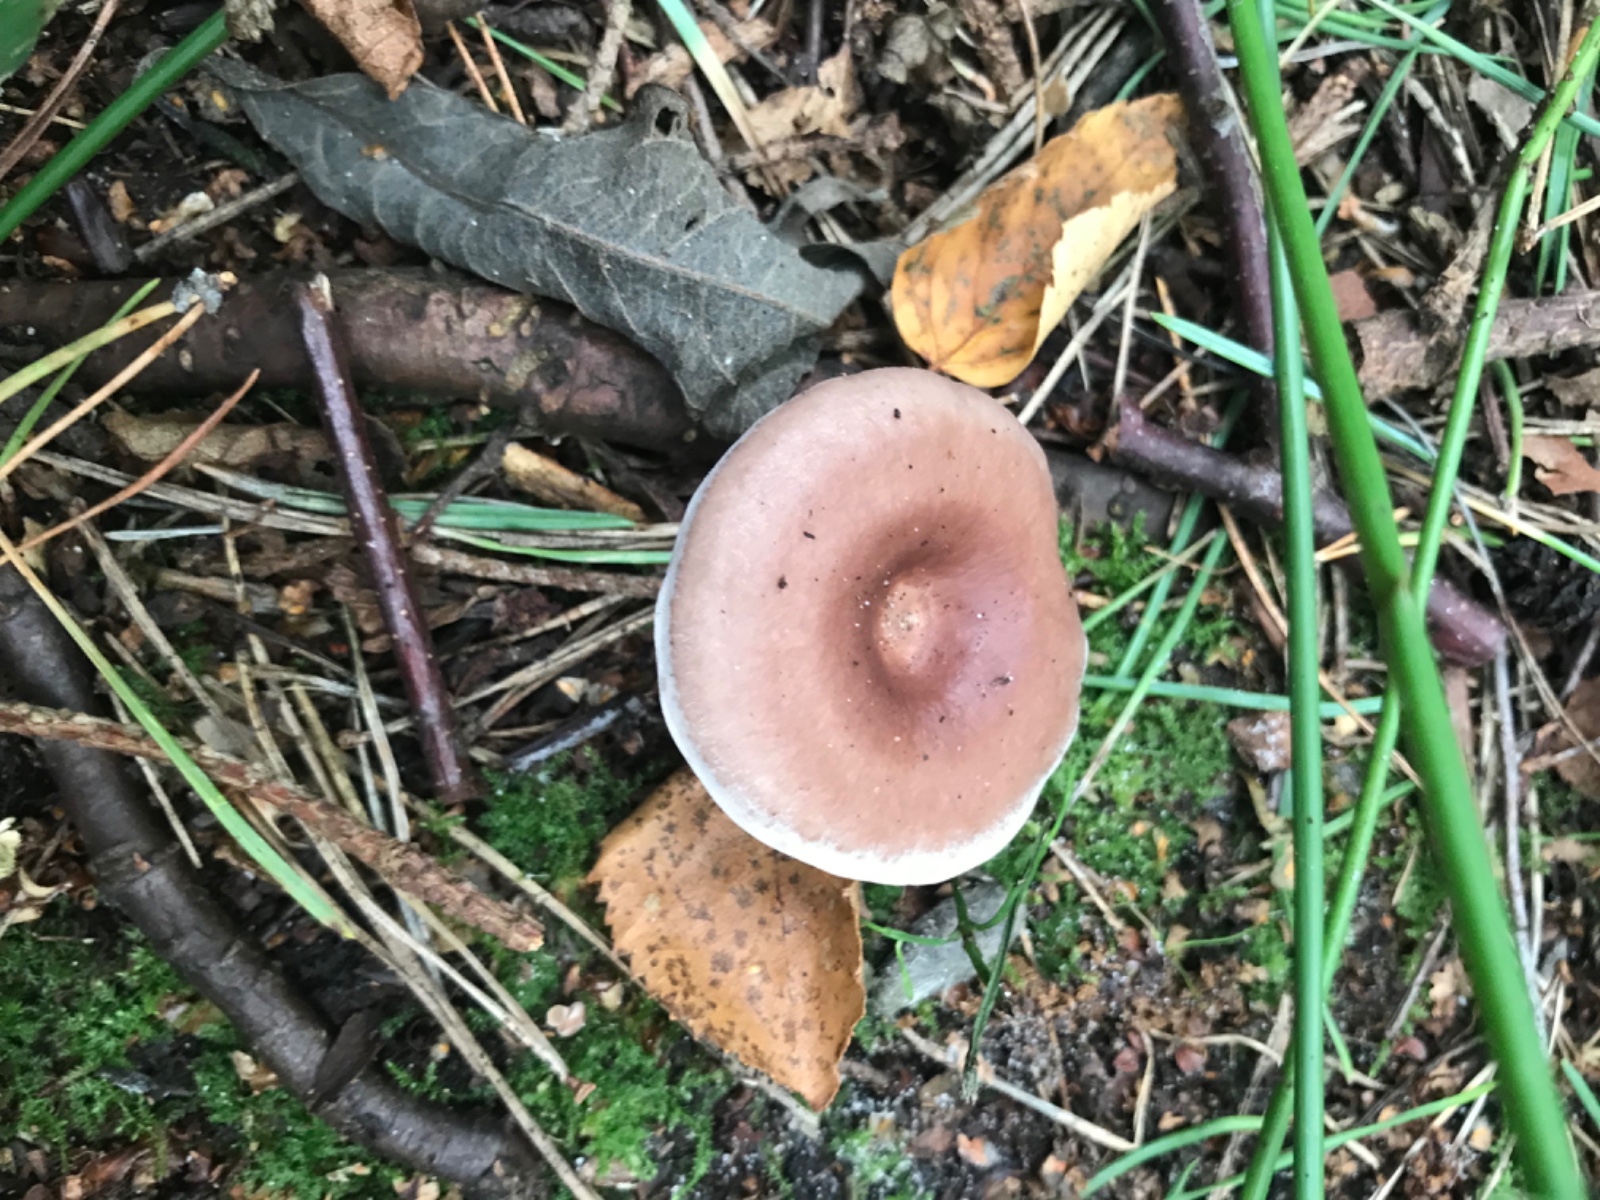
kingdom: Fungi
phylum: Basidiomycota
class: Agaricomycetes
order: Russulales
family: Russulaceae
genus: Lactarius
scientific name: Lactarius vietus
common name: violetgrå mælkehat
